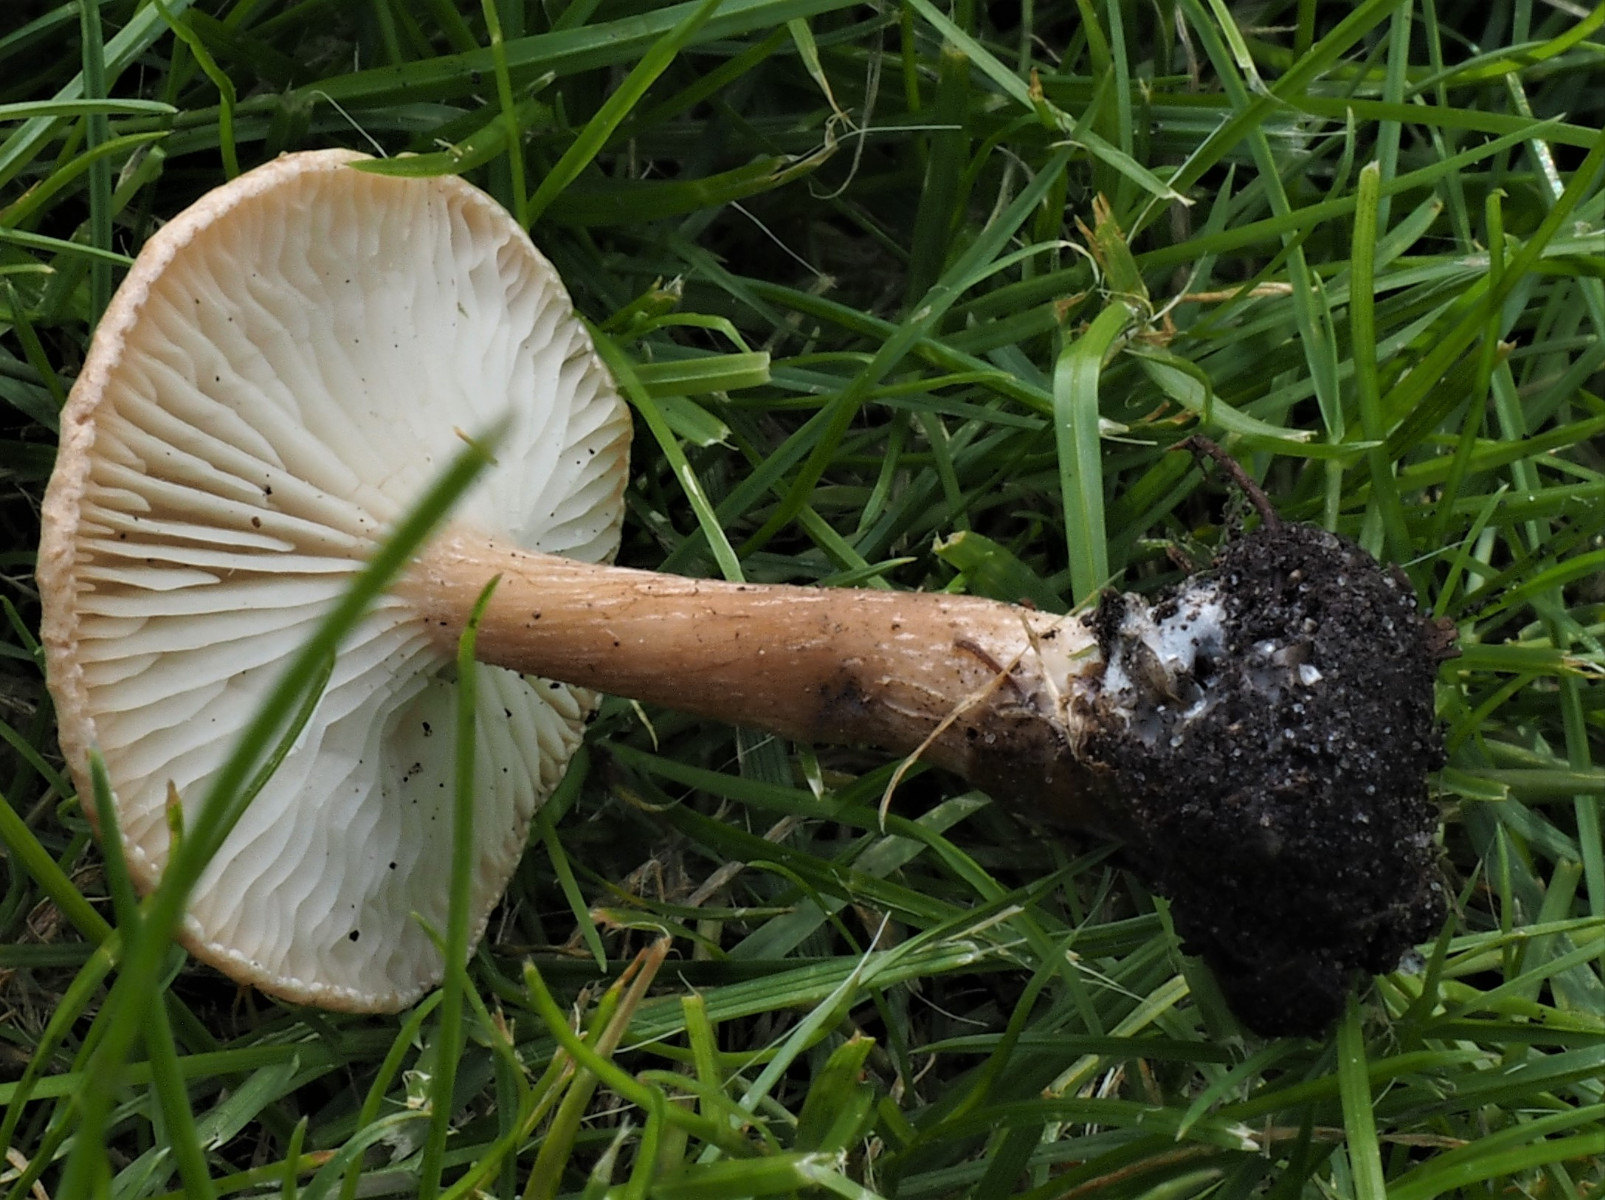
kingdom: Fungi
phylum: Basidiomycota
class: Agaricomycetes
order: Agaricales
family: Tricholomataceae
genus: Infundibulicybe
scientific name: Infundibulicybe
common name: tragthat
